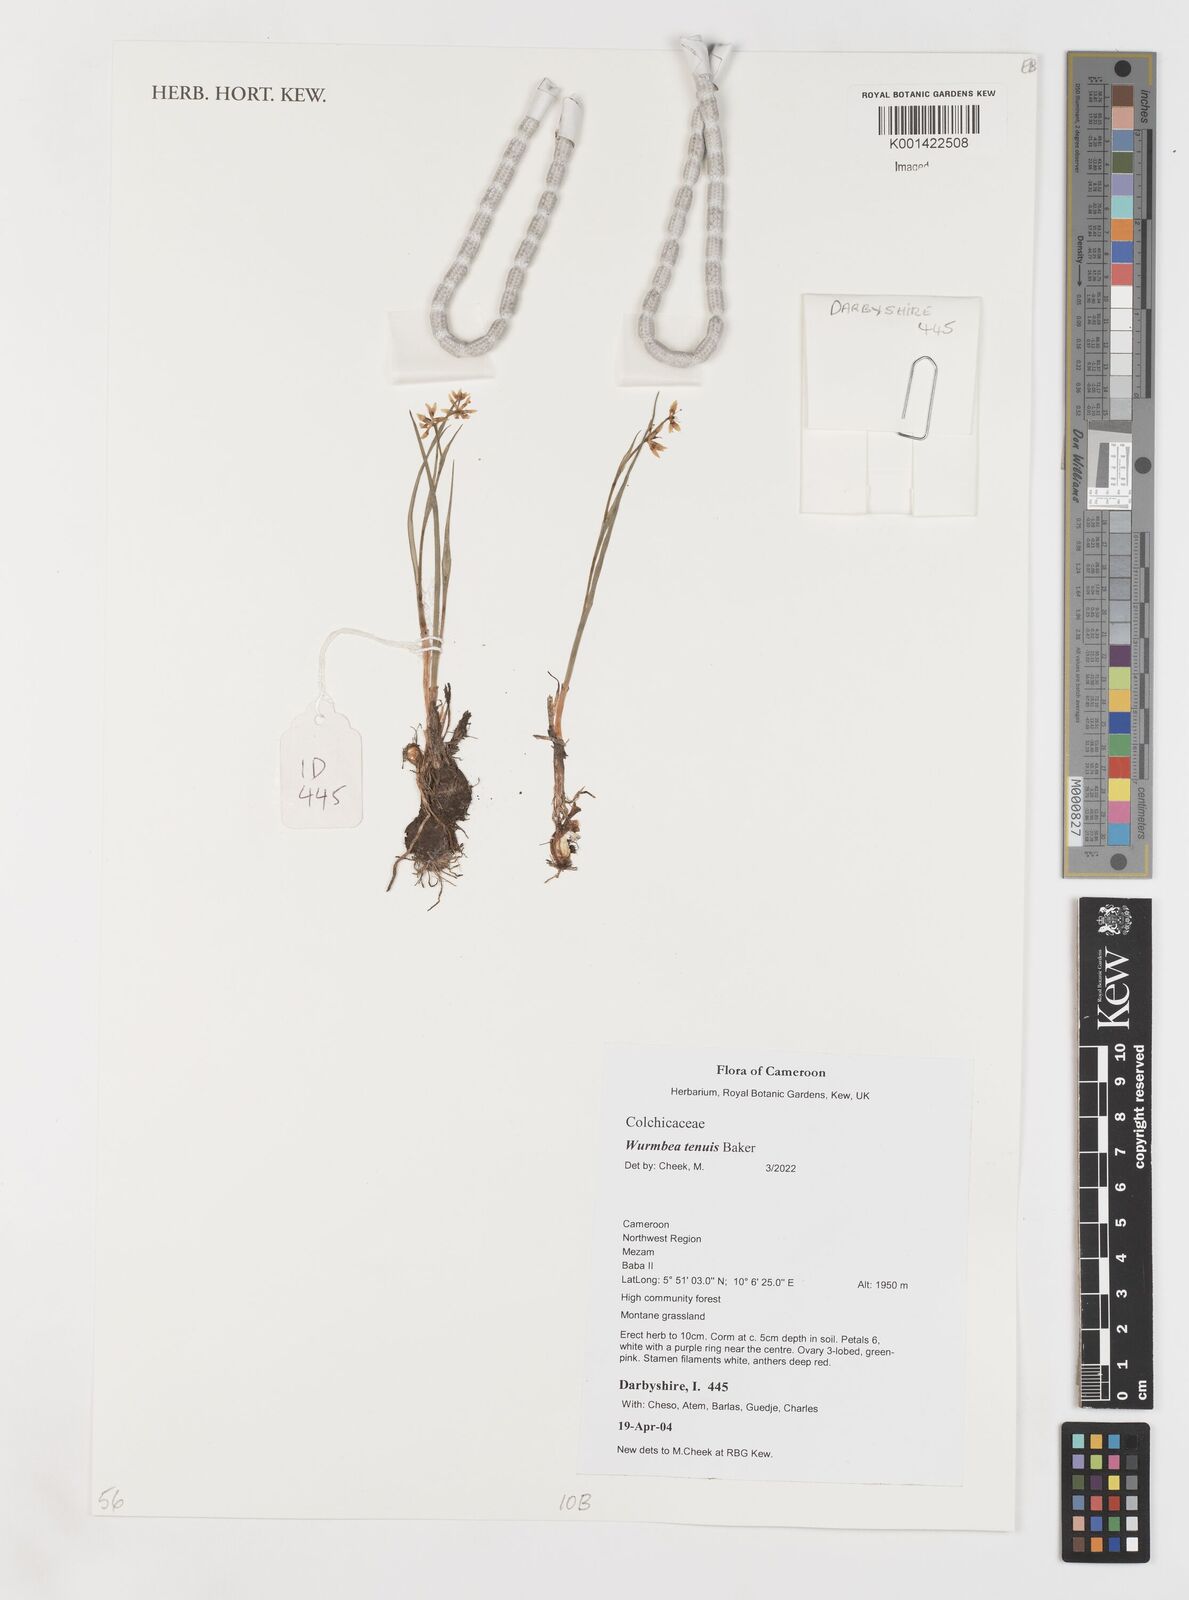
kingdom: Plantae
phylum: Tracheophyta
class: Liliopsida
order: Liliales
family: Colchicaceae
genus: Wurmbea
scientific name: Wurmbea tenuis
